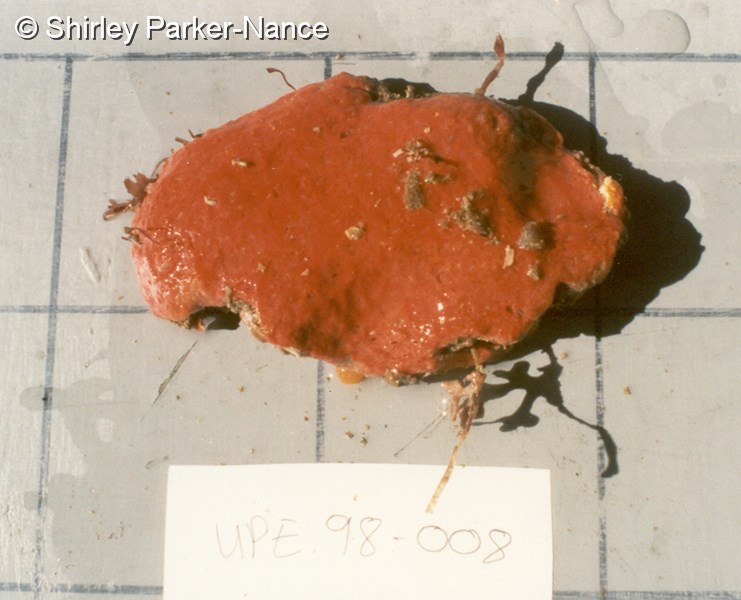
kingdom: Animalia
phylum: Chordata
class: Ascidiacea
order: Aplousobranchia
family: Polyclinidae
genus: Aplidium
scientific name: Aplidium
